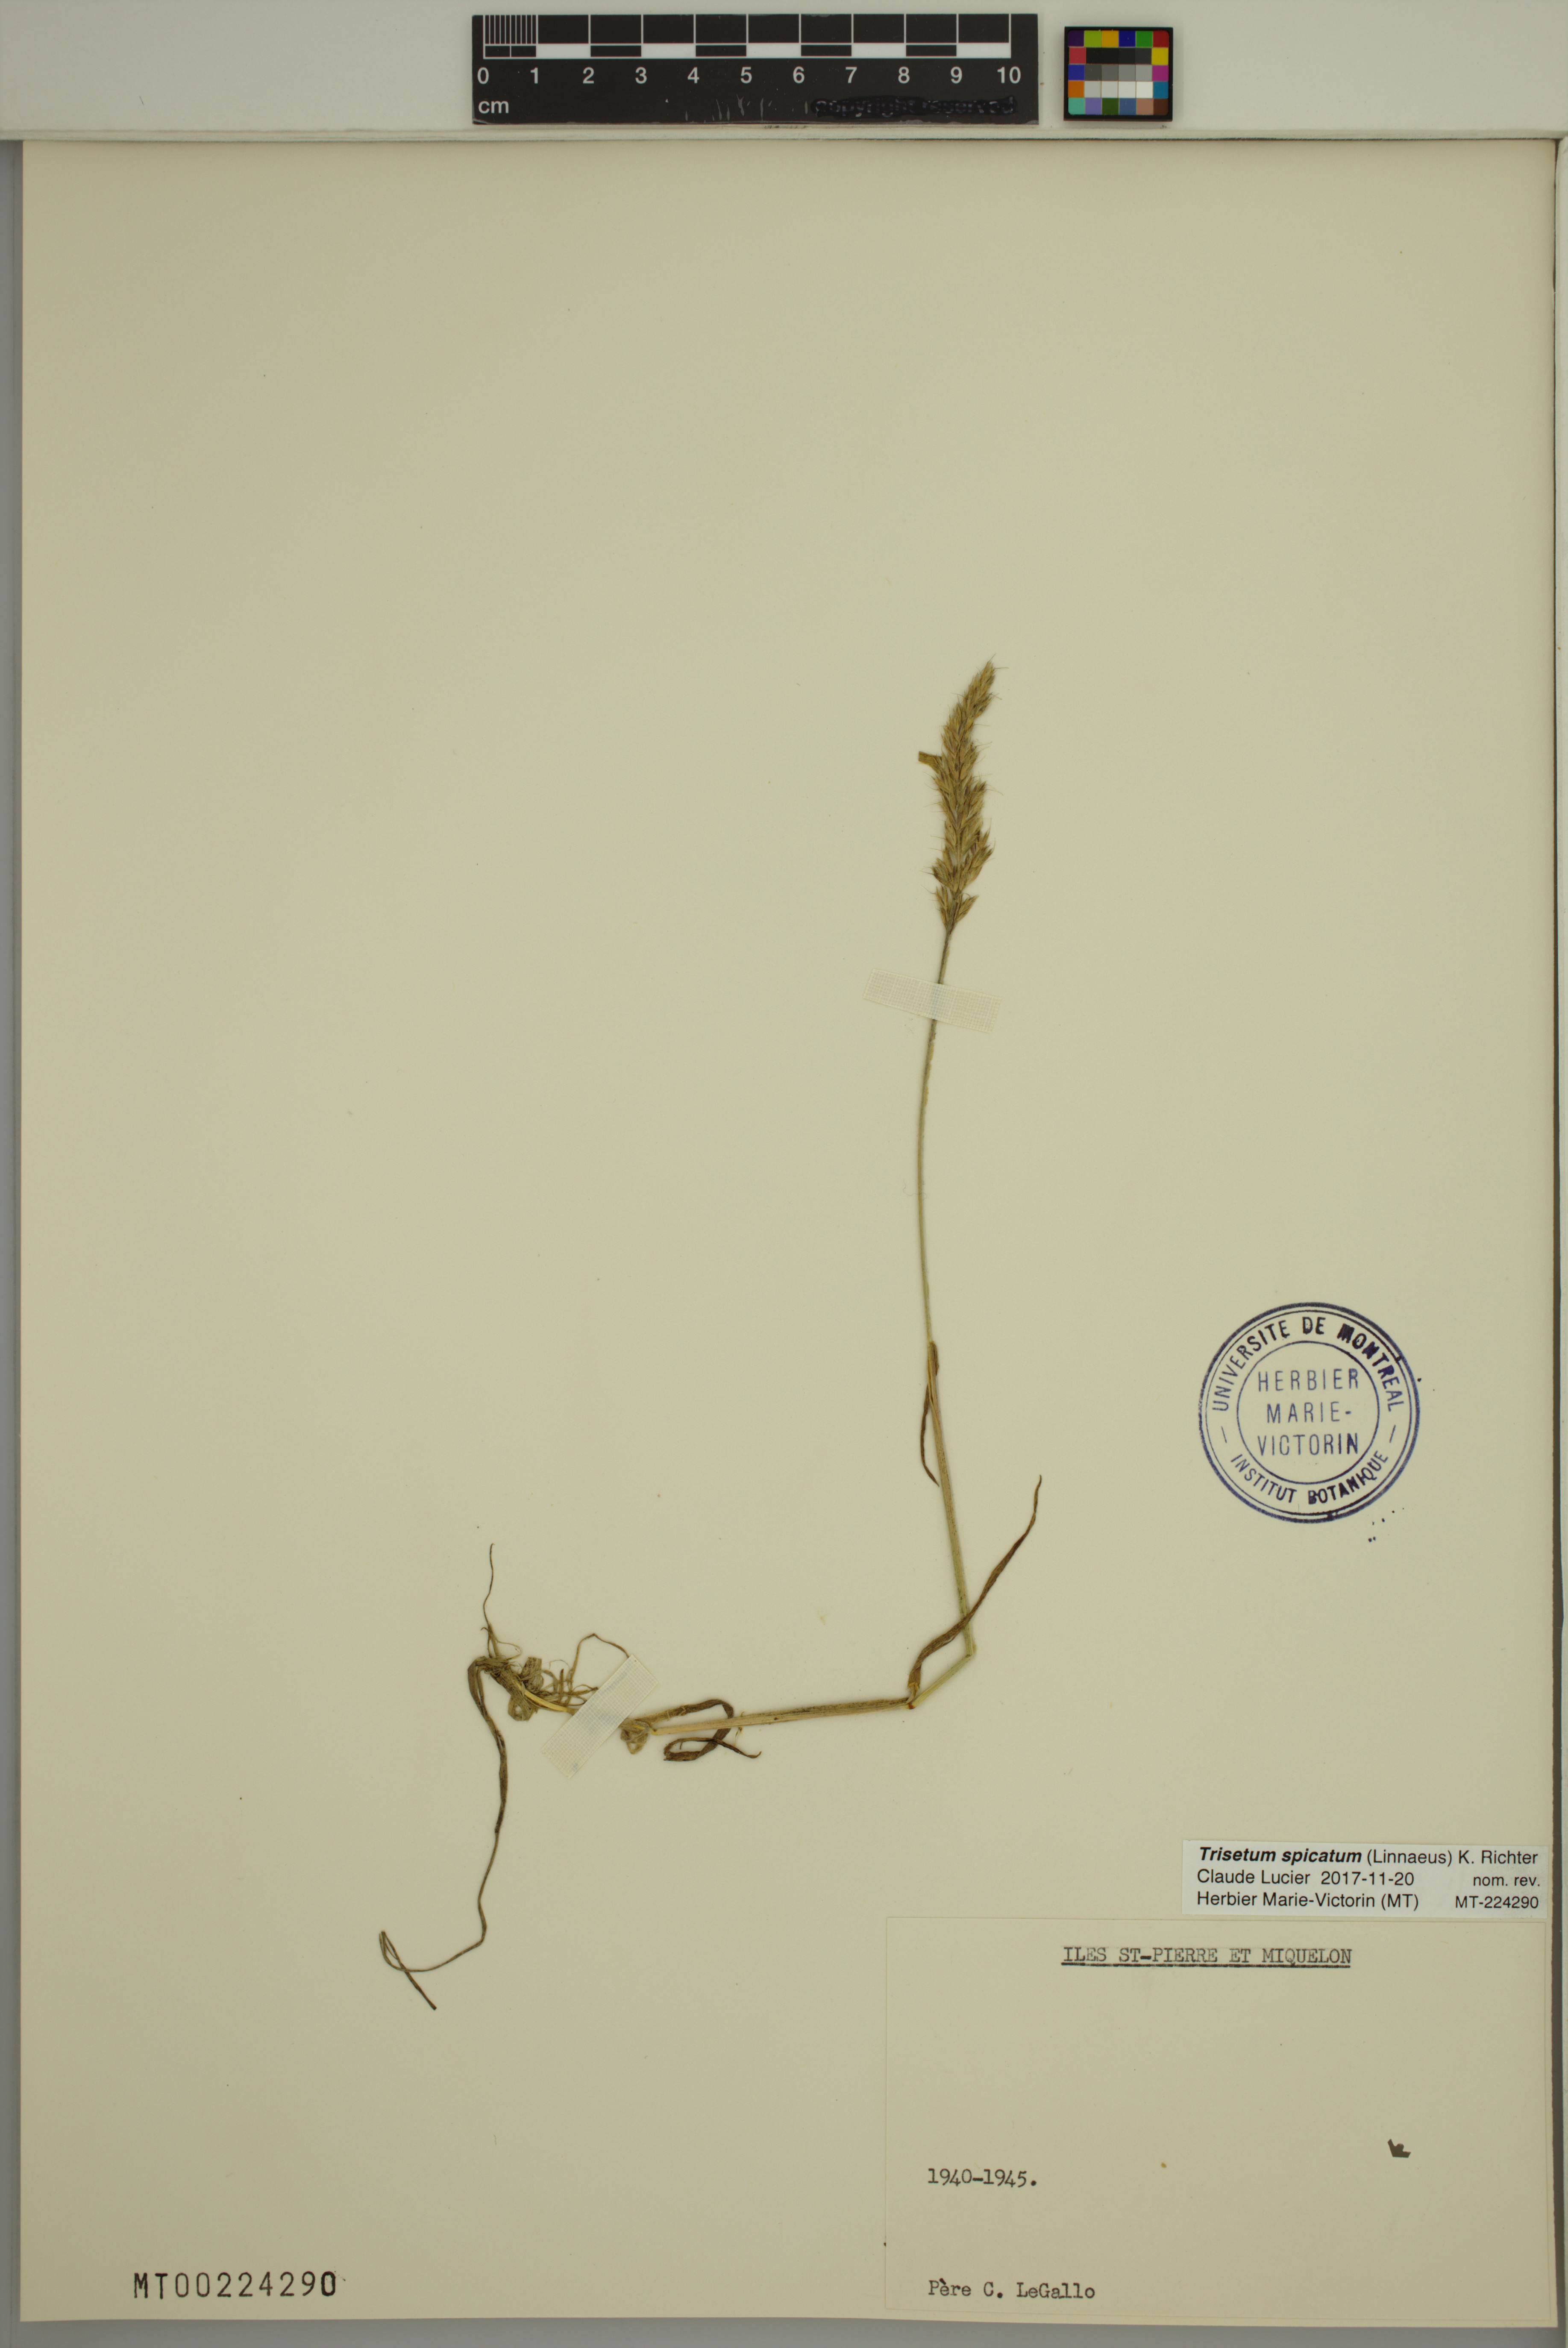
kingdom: Plantae
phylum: Tracheophyta
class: Liliopsida
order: Poales
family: Poaceae
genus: Koeleria
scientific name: Koeleria spicata
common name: Mountain trisetum
